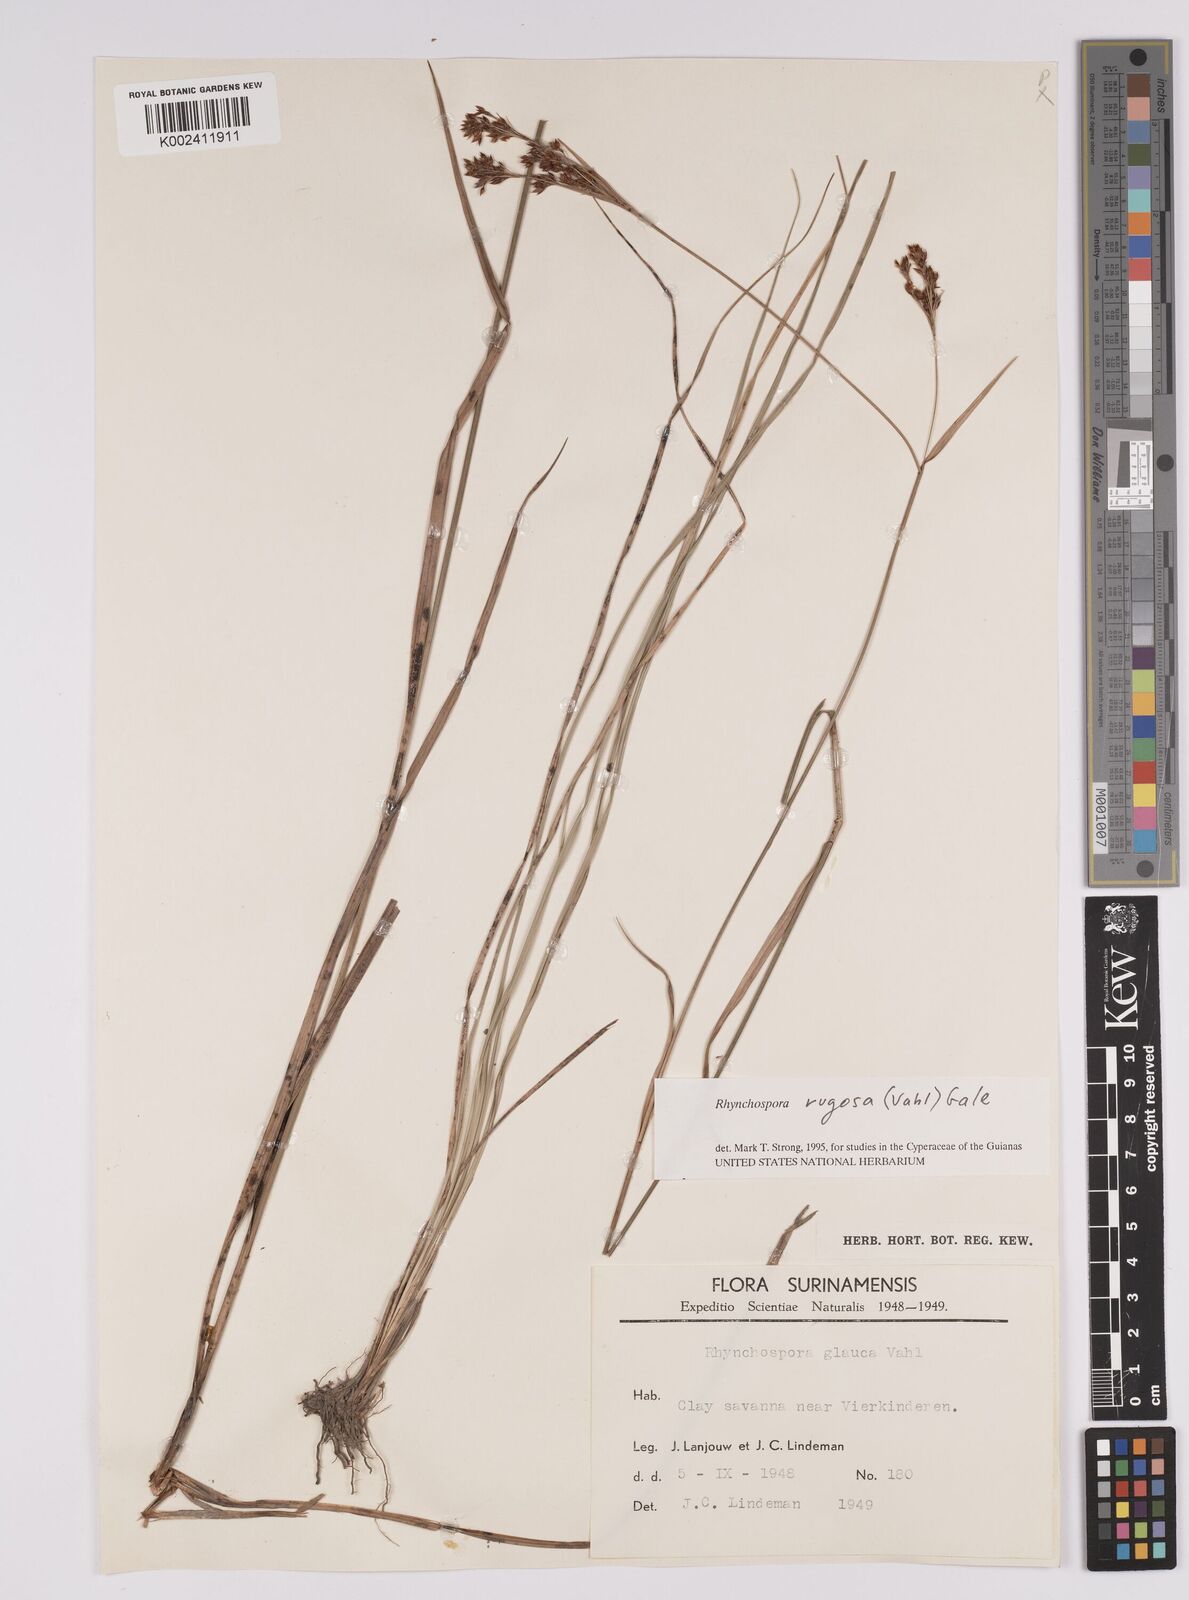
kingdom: Plantae
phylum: Tracheophyta
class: Liliopsida
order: Poales
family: Cyperaceae
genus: Rhynchospora
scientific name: Rhynchospora rugosa
